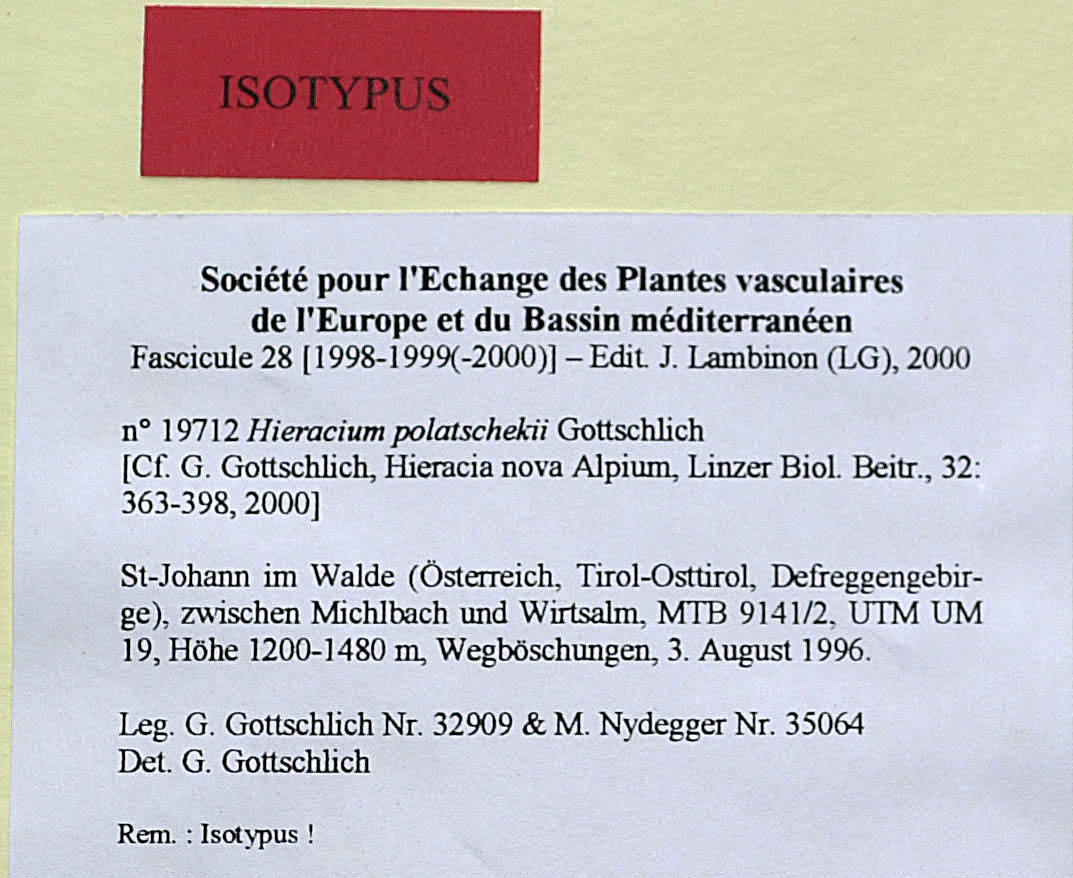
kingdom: Plantae
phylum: Tracheophyta
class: Magnoliopsida
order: Asterales
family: Asteraceae
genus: Hieracium
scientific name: Hieracium polatschekii
